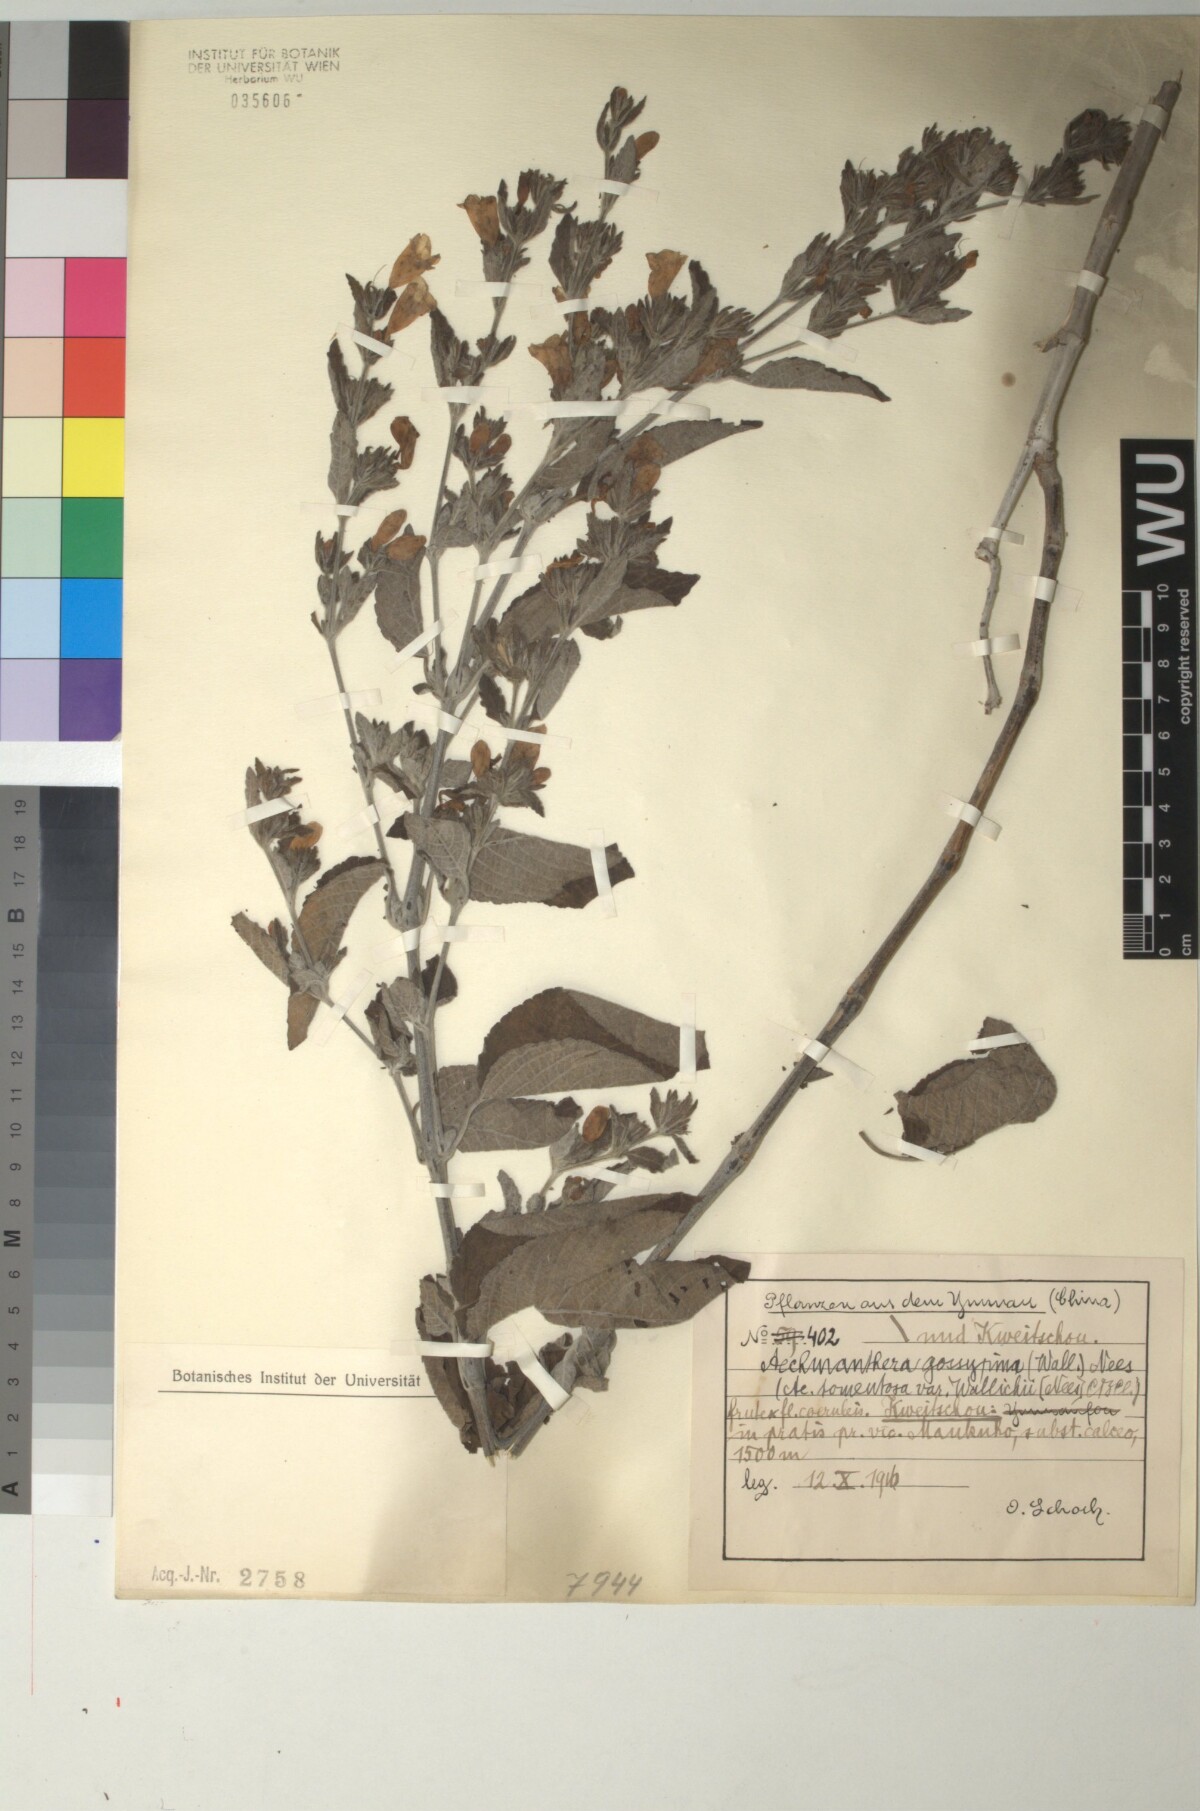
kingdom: Plantae
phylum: Tracheophyta
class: Magnoliopsida
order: Lamiales
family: Acanthaceae
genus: Strobilanthes
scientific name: Strobilanthes tomentosa
